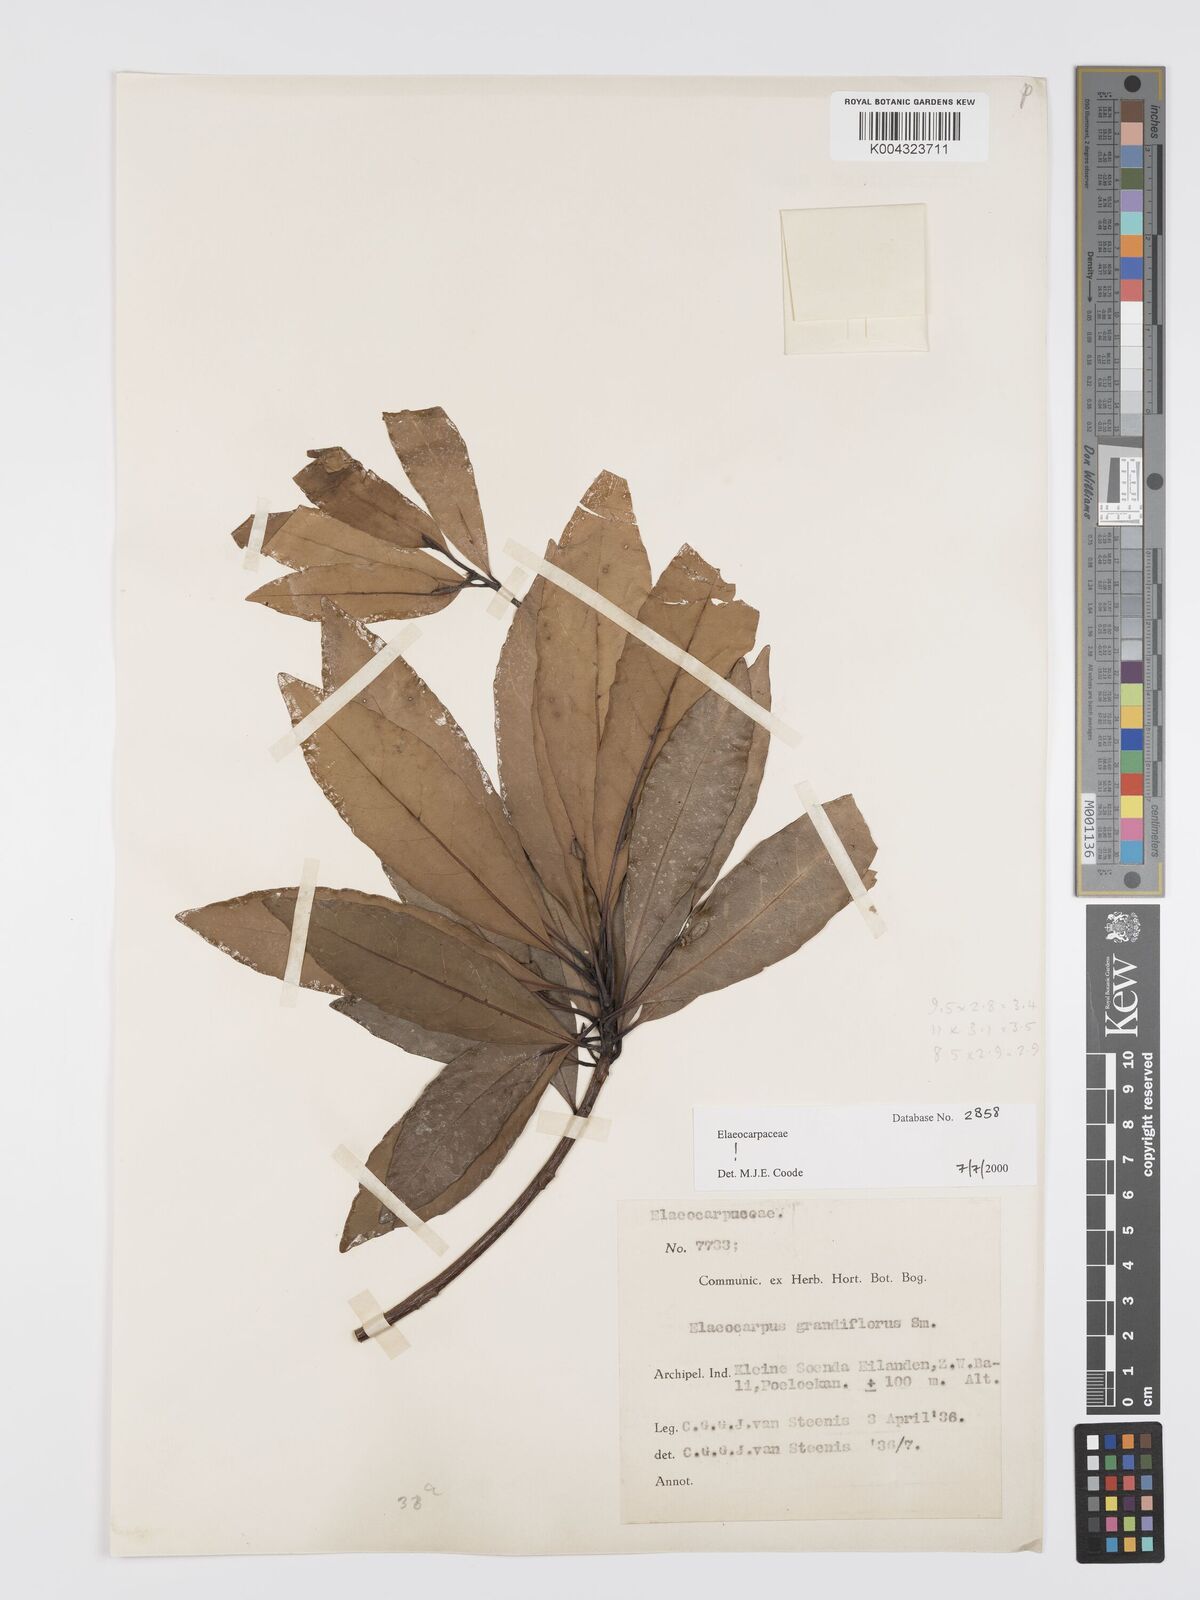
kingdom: Plantae
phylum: Tracheophyta
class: Magnoliopsida
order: Oxalidales
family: Elaeocarpaceae
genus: Elaeocarpus
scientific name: Elaeocarpus grandiflorus
